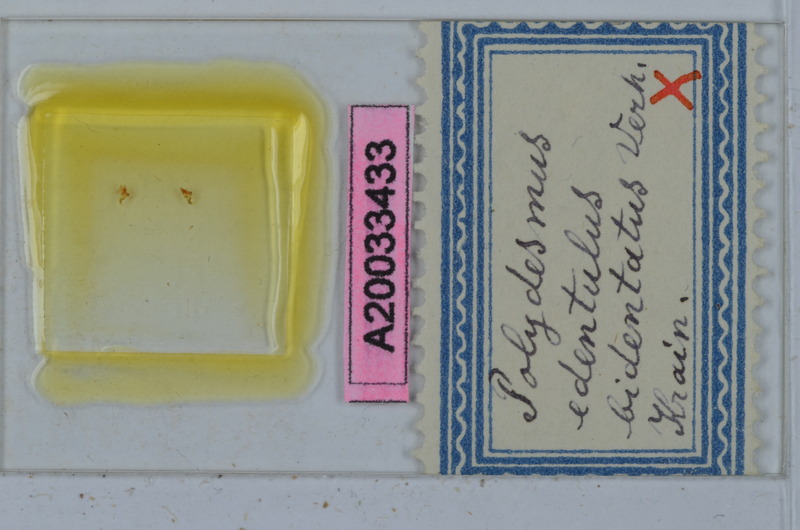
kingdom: Animalia
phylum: Arthropoda
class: Diplopoda
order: Polydesmida
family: Polydesmidae
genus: Polydesmus
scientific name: Polydesmus edentulus
